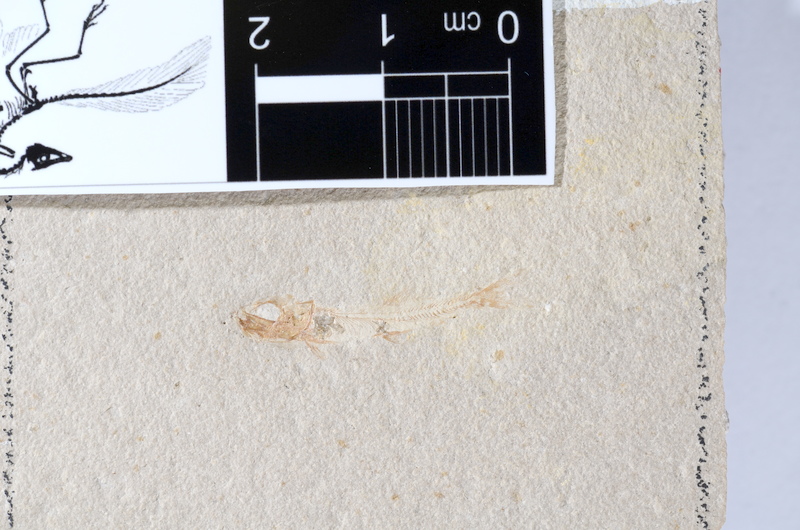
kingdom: Animalia
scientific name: Animalia
